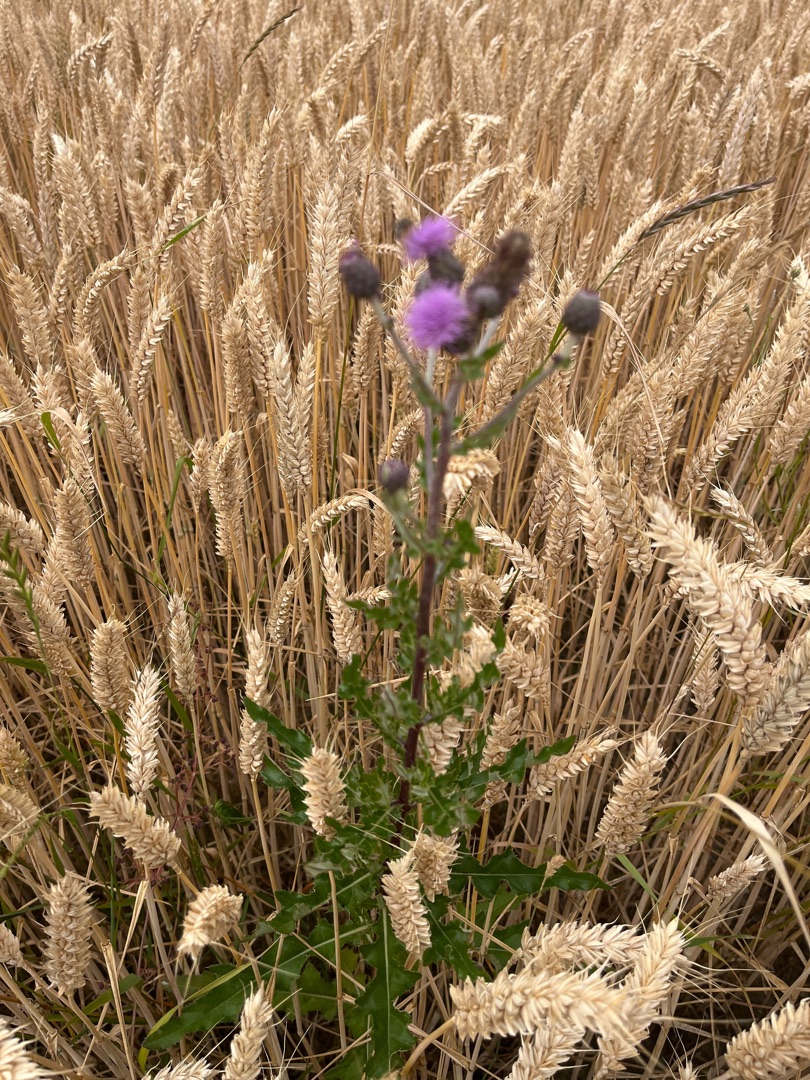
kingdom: Plantae
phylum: Tracheophyta
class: Magnoliopsida
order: Asterales
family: Asteraceae
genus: Cirsium
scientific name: Cirsium arvense
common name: Ager-tidsel
